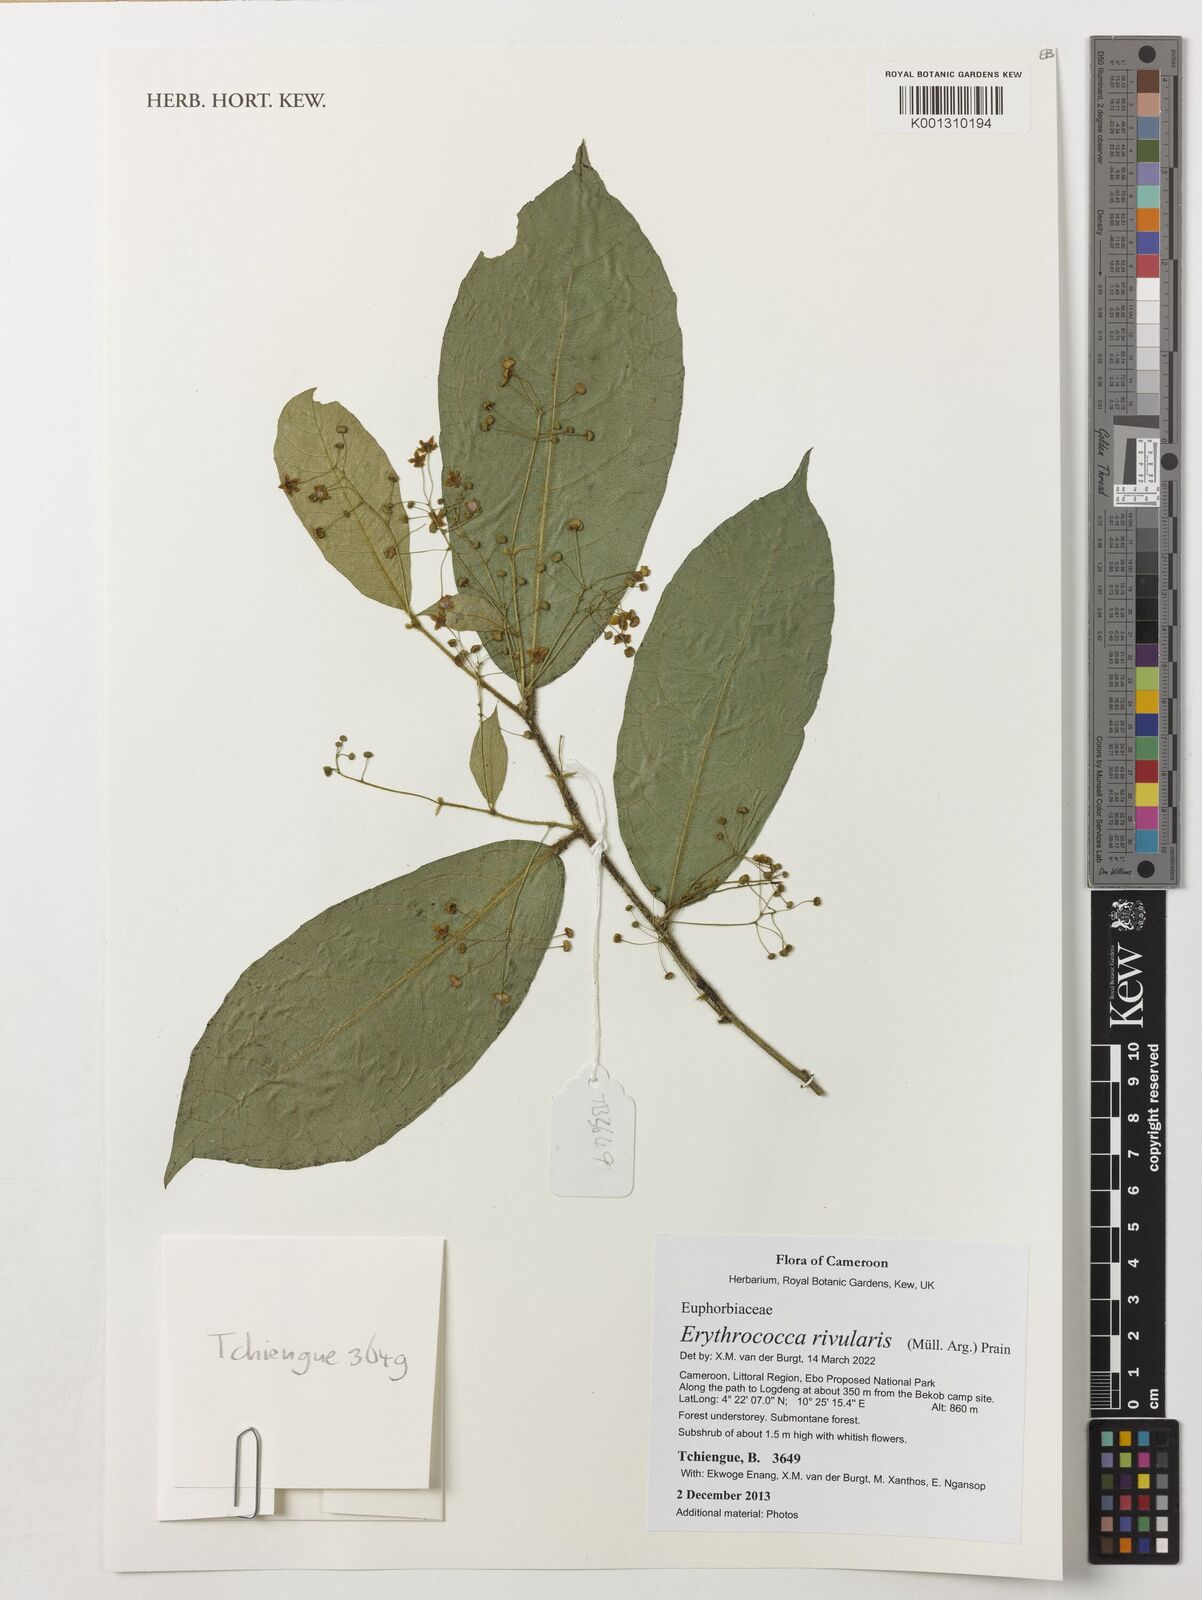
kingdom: Plantae
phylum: Tracheophyta
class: Magnoliopsida
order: Malpighiales
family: Euphorbiaceae
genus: Erythrococca
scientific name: Erythrococca rivularis
